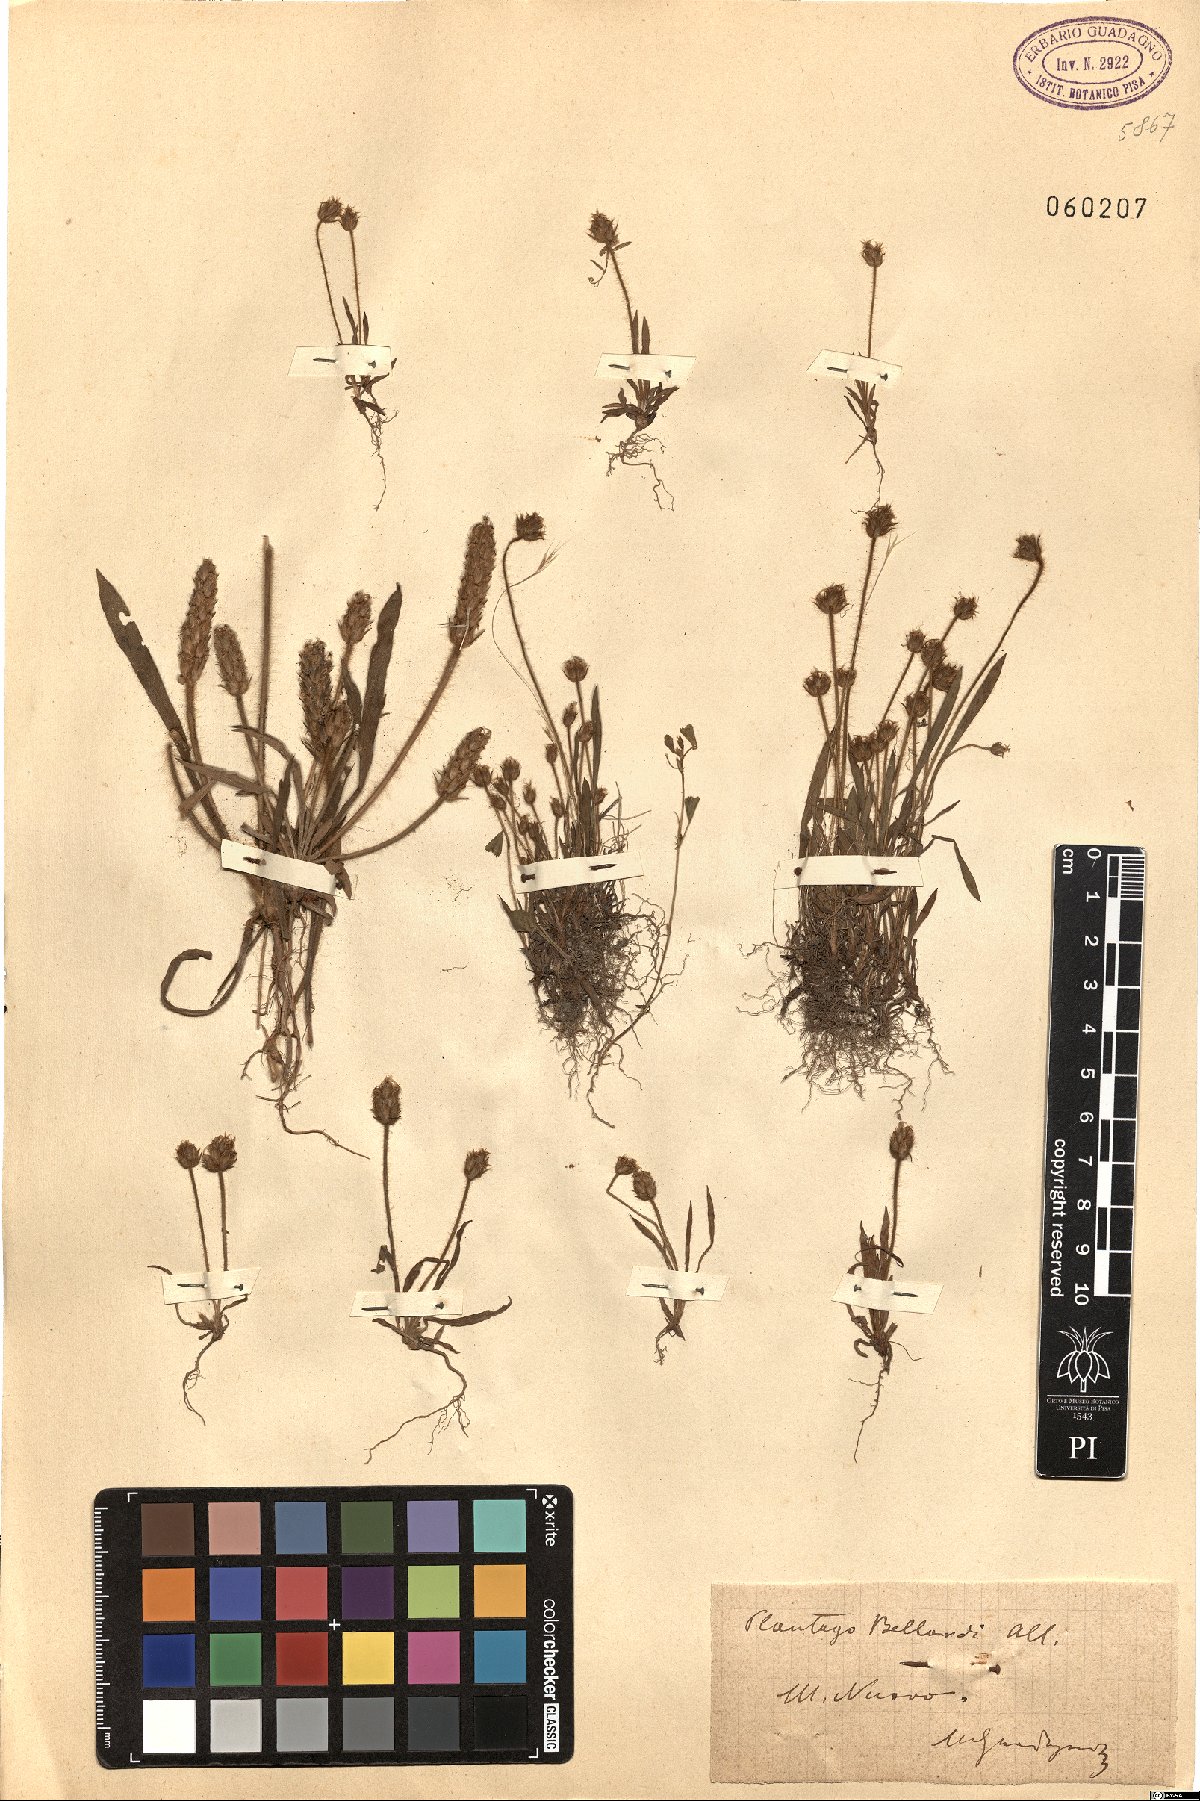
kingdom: Plantae
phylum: Tracheophyta
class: Magnoliopsida
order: Lamiales
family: Plantaginaceae
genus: Plantago
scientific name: Plantago bellardii
